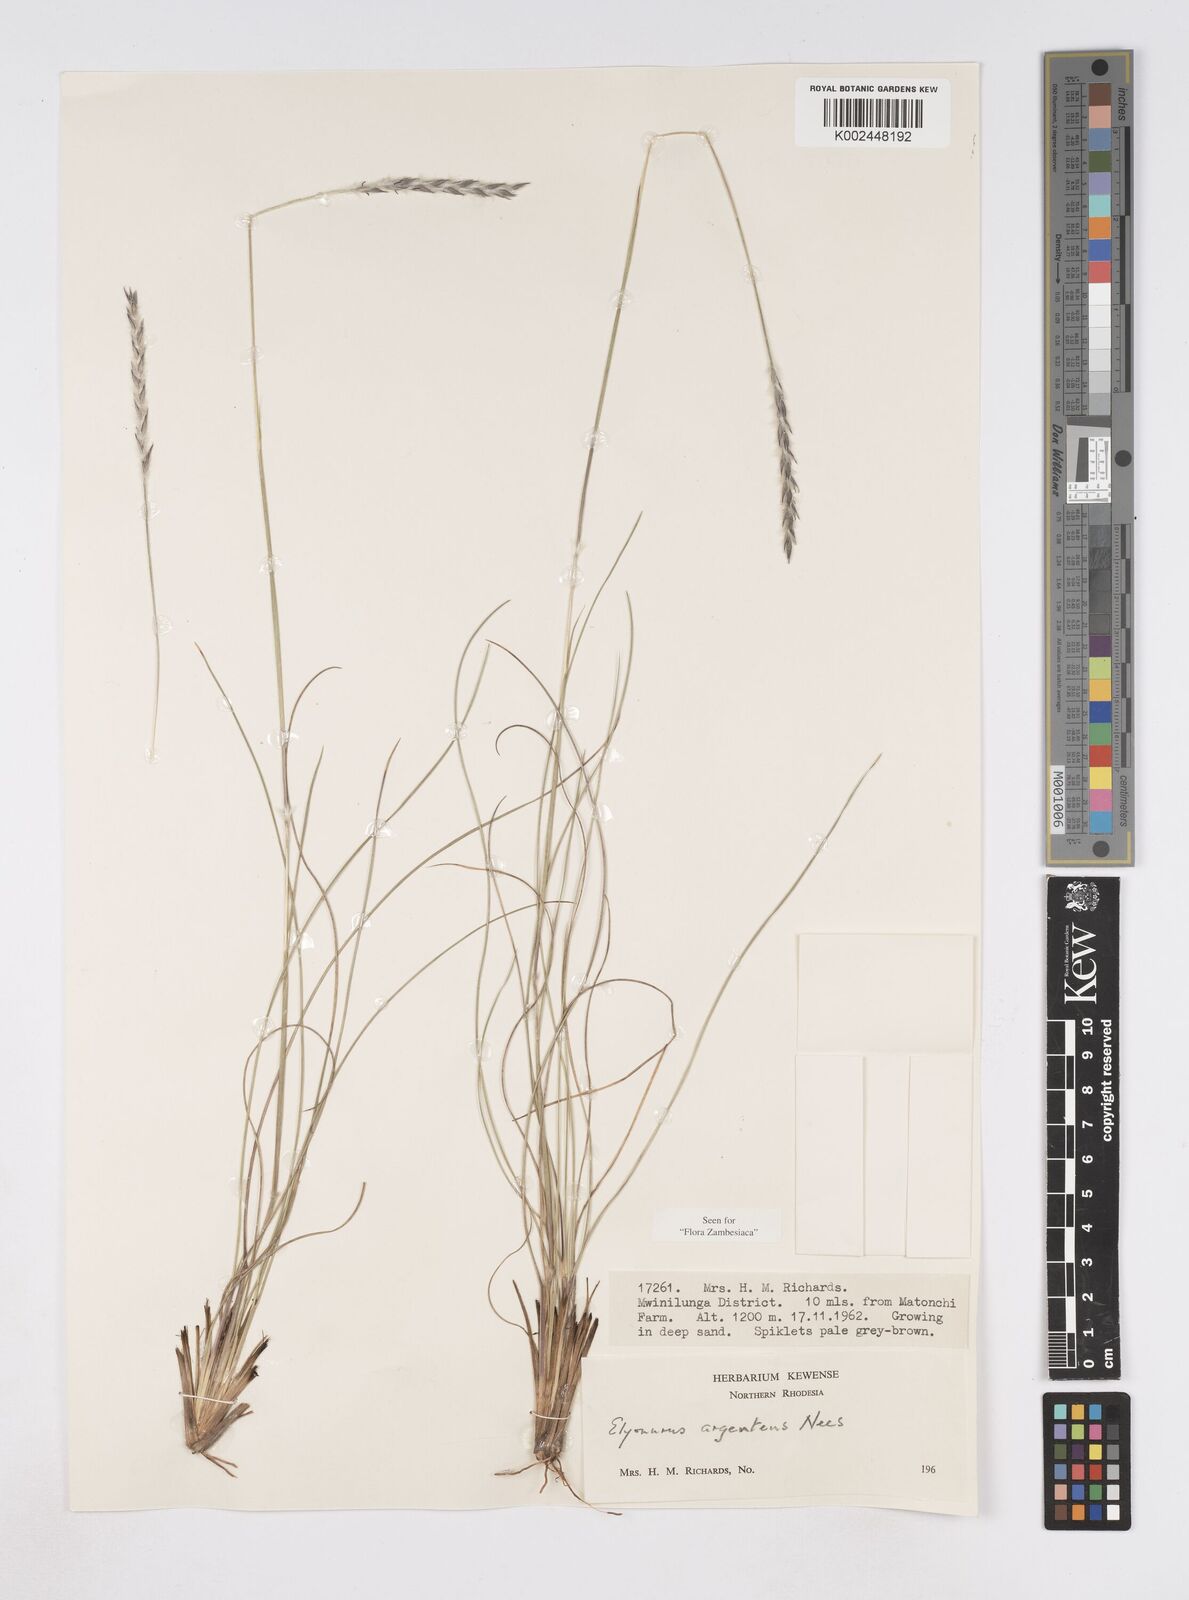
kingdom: Plantae
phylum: Tracheophyta
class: Liliopsida
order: Poales
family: Poaceae
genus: Elionurus
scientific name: Elionurus muticus
